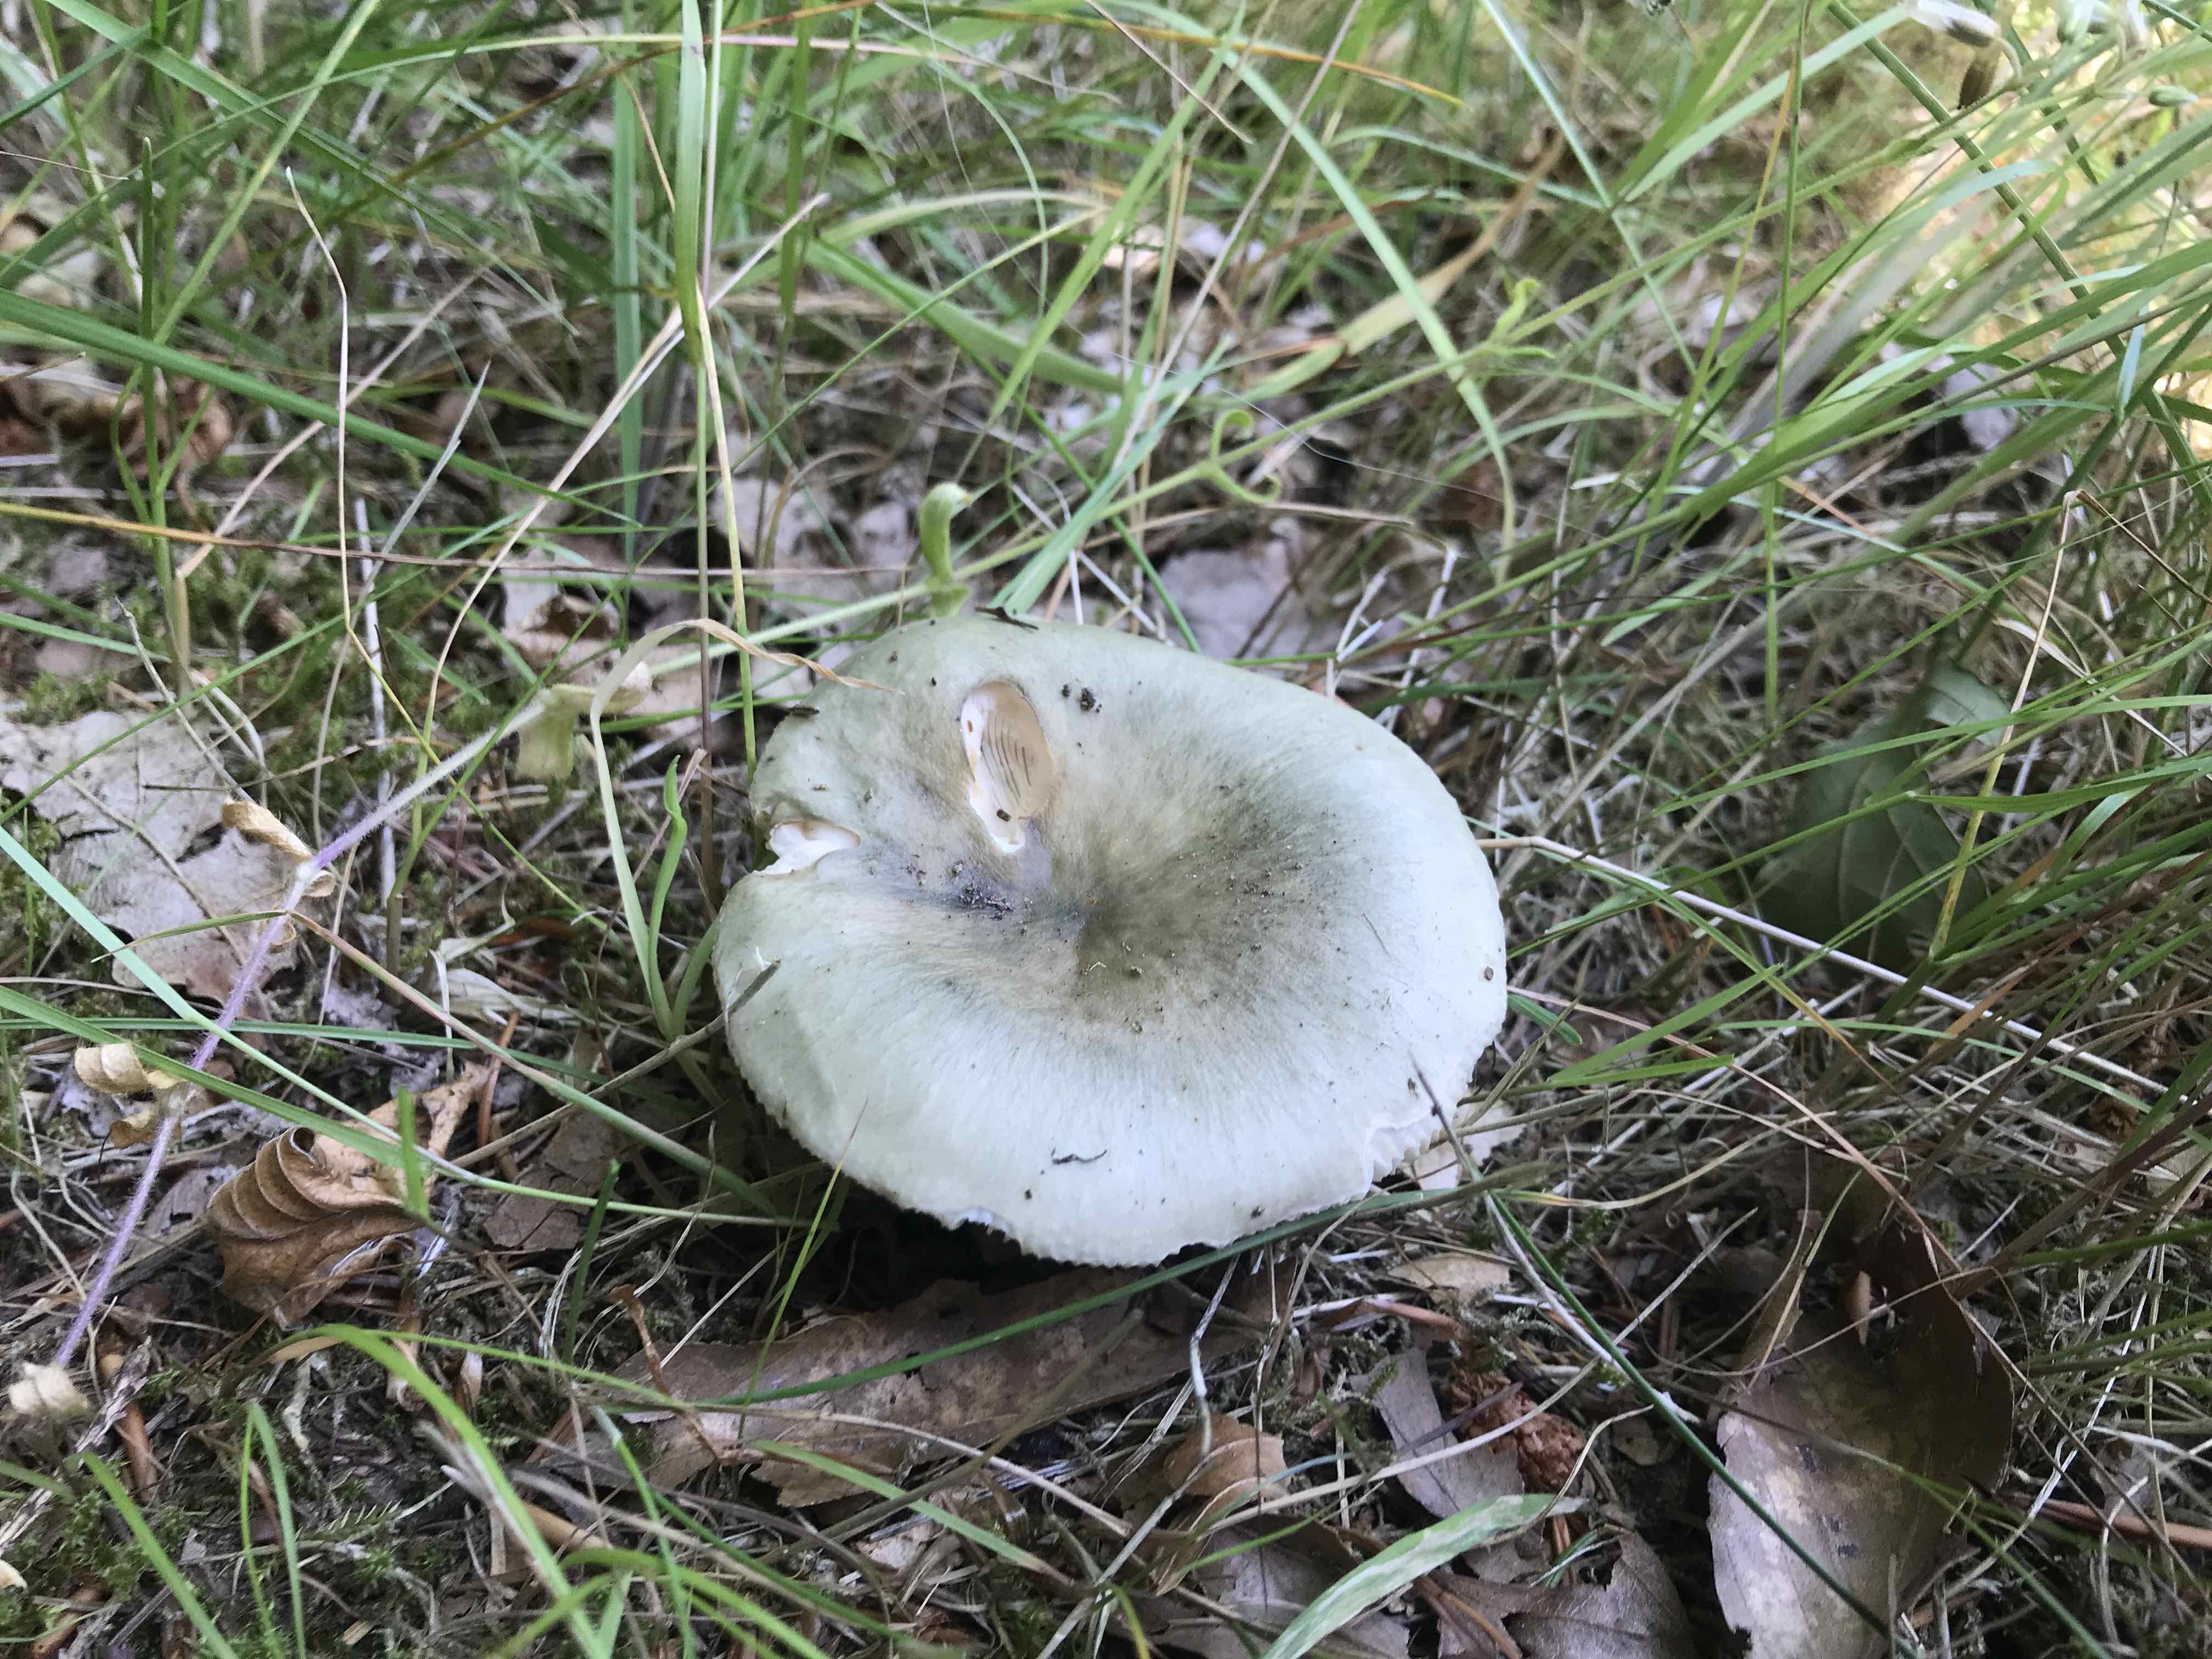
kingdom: Fungi
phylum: Basidiomycota
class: Agaricomycetes
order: Russulales
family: Russulaceae
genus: Russula
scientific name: Russula
